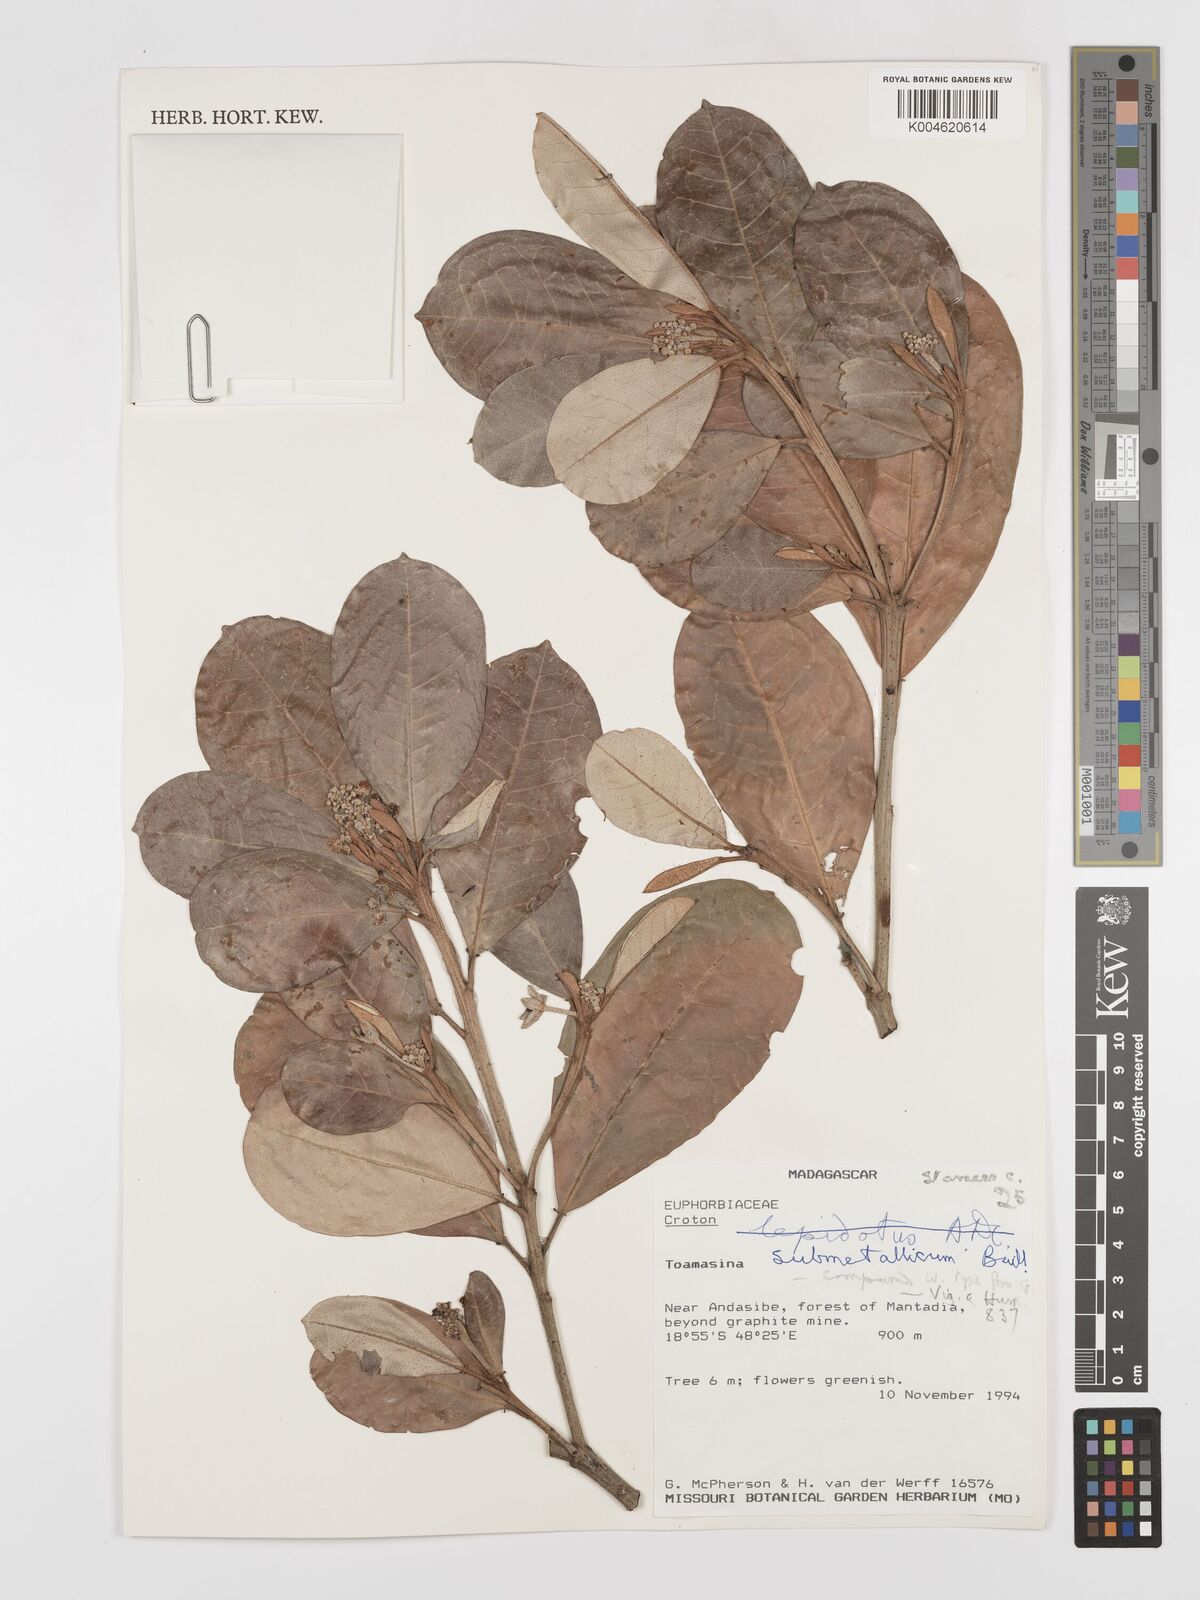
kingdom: Plantae
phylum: Tracheophyta
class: Magnoliopsida
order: Malpighiales
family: Euphorbiaceae
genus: Croton
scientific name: Croton submetallicus
